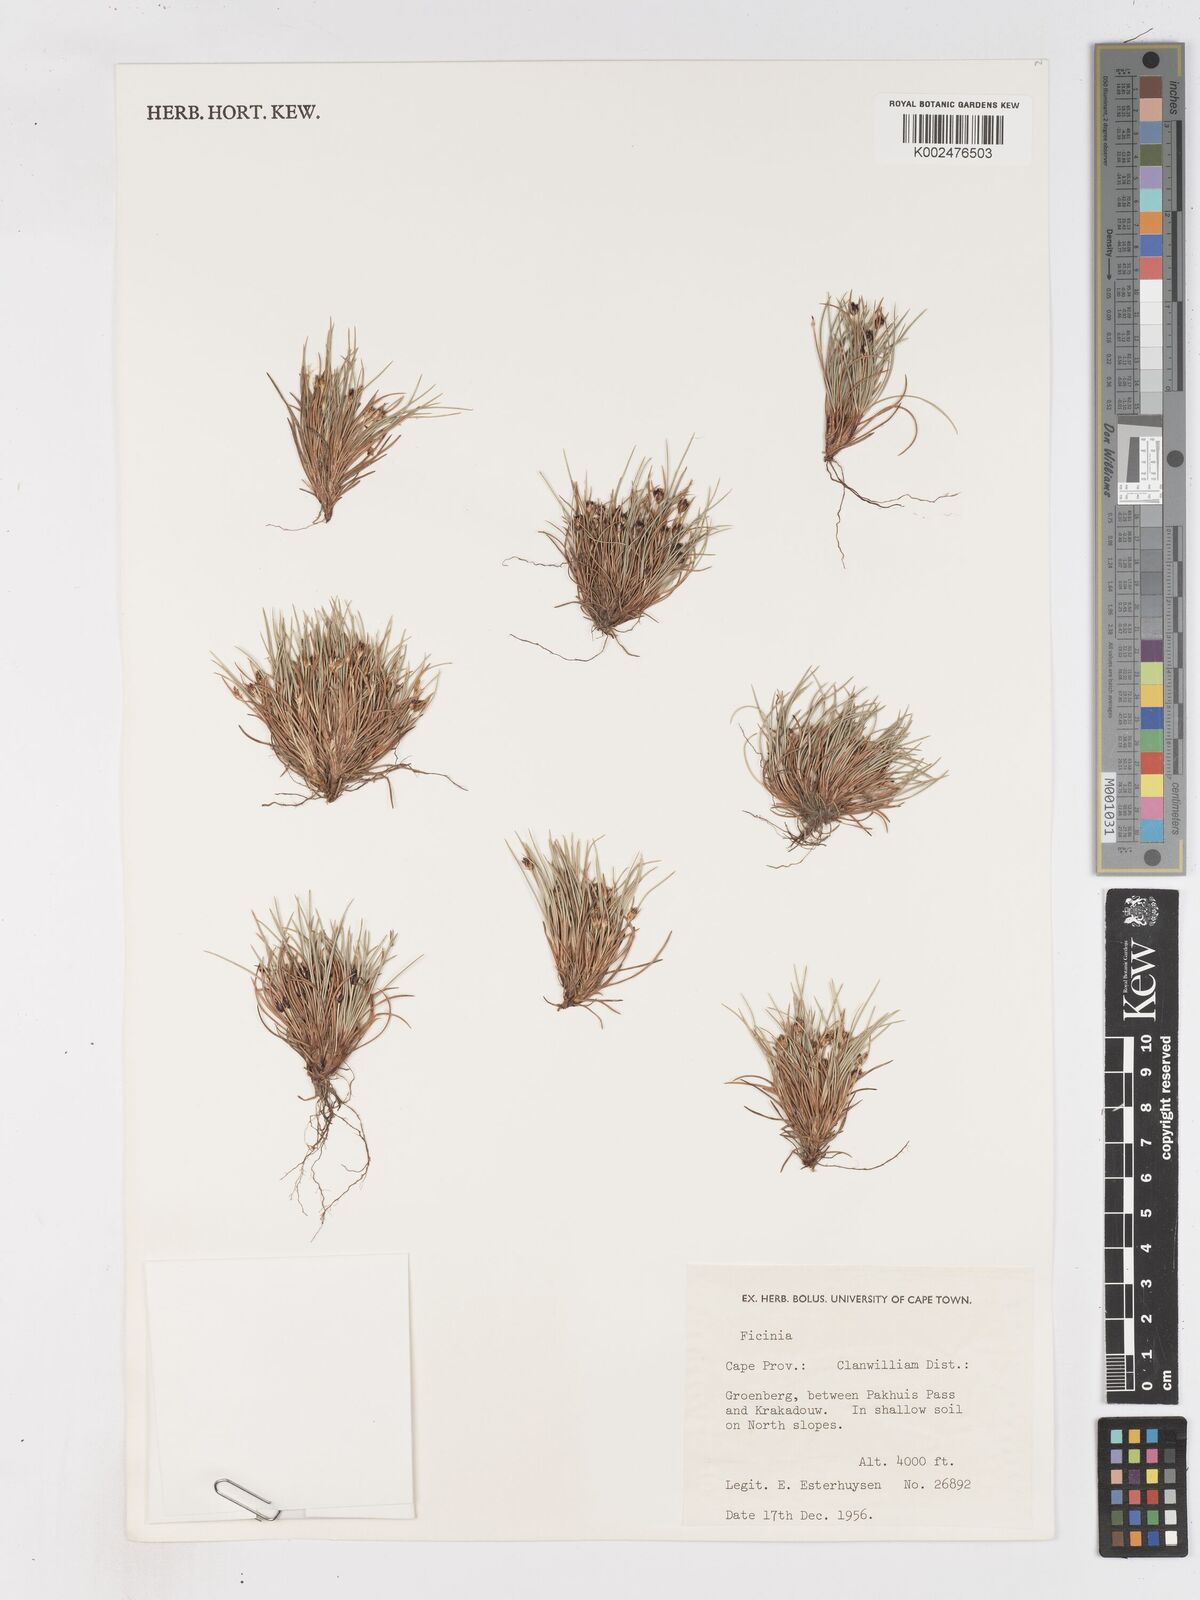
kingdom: Plantae
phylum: Tracheophyta
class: Liliopsida
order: Poales
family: Cyperaceae
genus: Ficinia
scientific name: Ficinia
